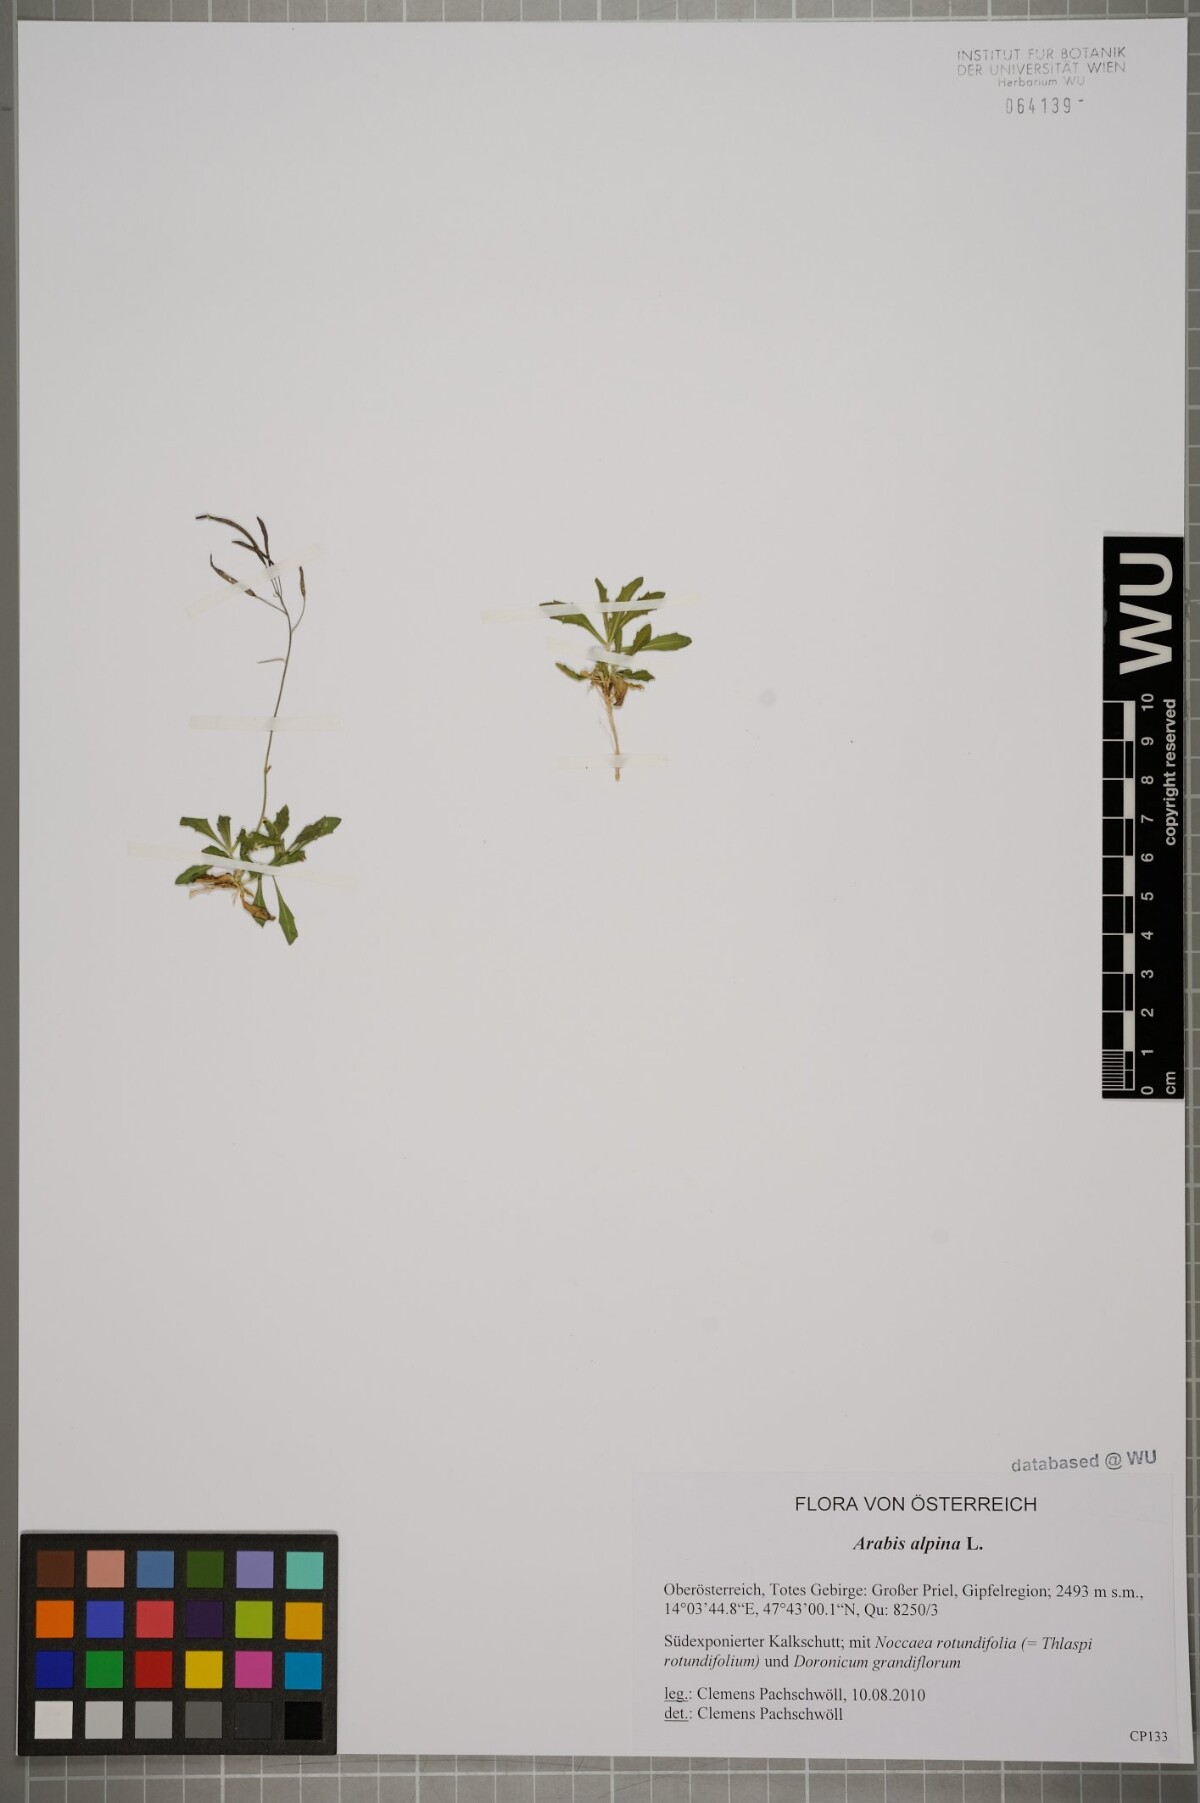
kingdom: Plantae
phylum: Tracheophyta
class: Magnoliopsida
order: Brassicales
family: Brassicaceae
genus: Arabis
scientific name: Arabis alpina
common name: Alpine rock-cress
